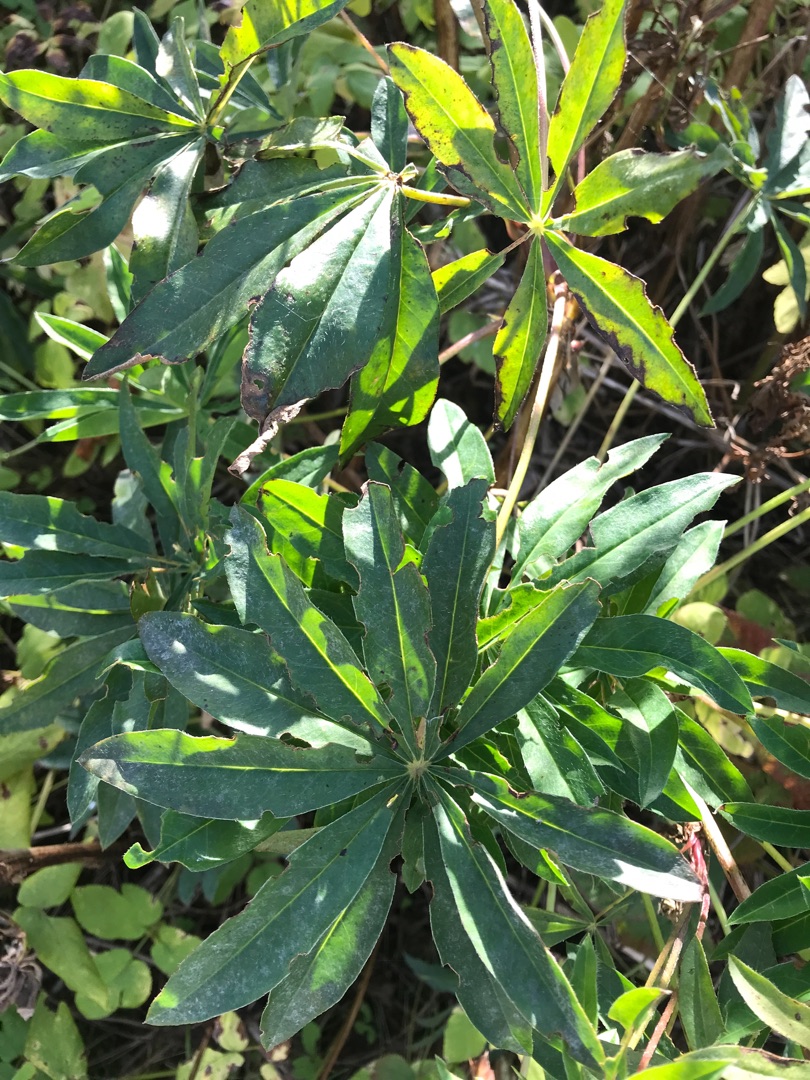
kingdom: Plantae
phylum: Tracheophyta
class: Magnoliopsida
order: Fabales
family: Fabaceae
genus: Lupinus
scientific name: Lupinus polyphyllus
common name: Mangebladet lupin
